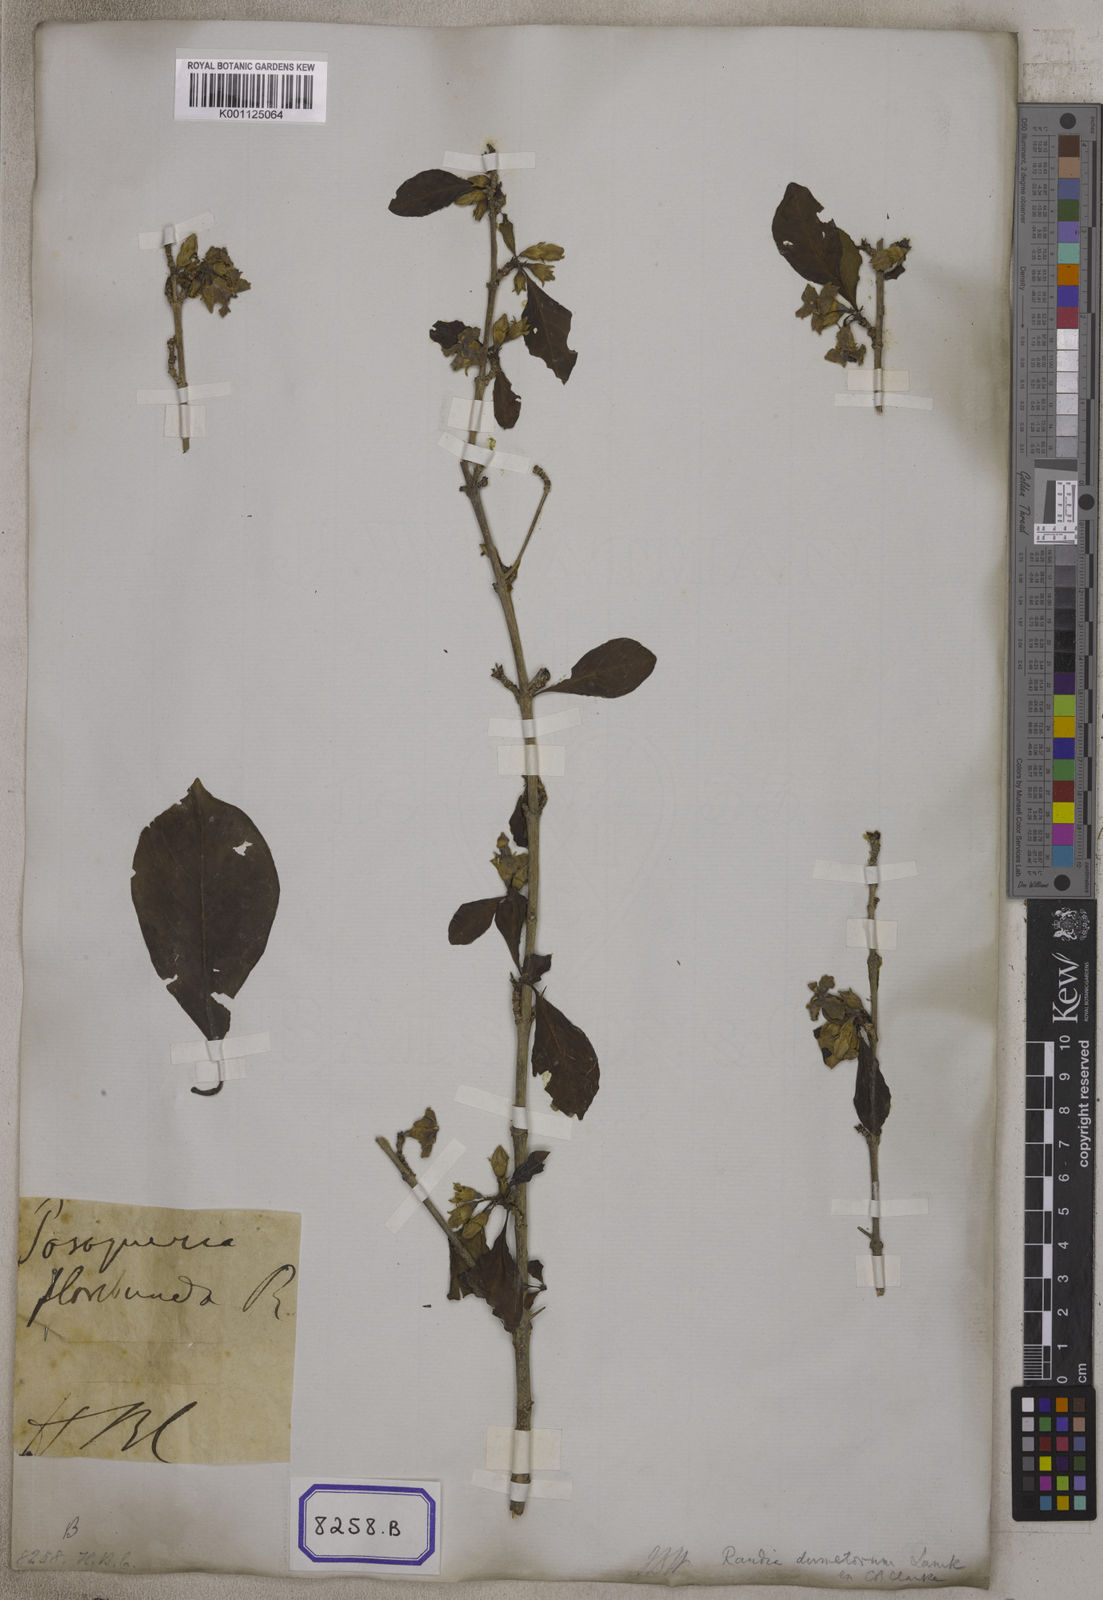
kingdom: Plantae
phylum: Tracheophyta
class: Magnoliopsida
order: Gentianales
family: Rubiaceae
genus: Gardenia
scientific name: Gardenia
